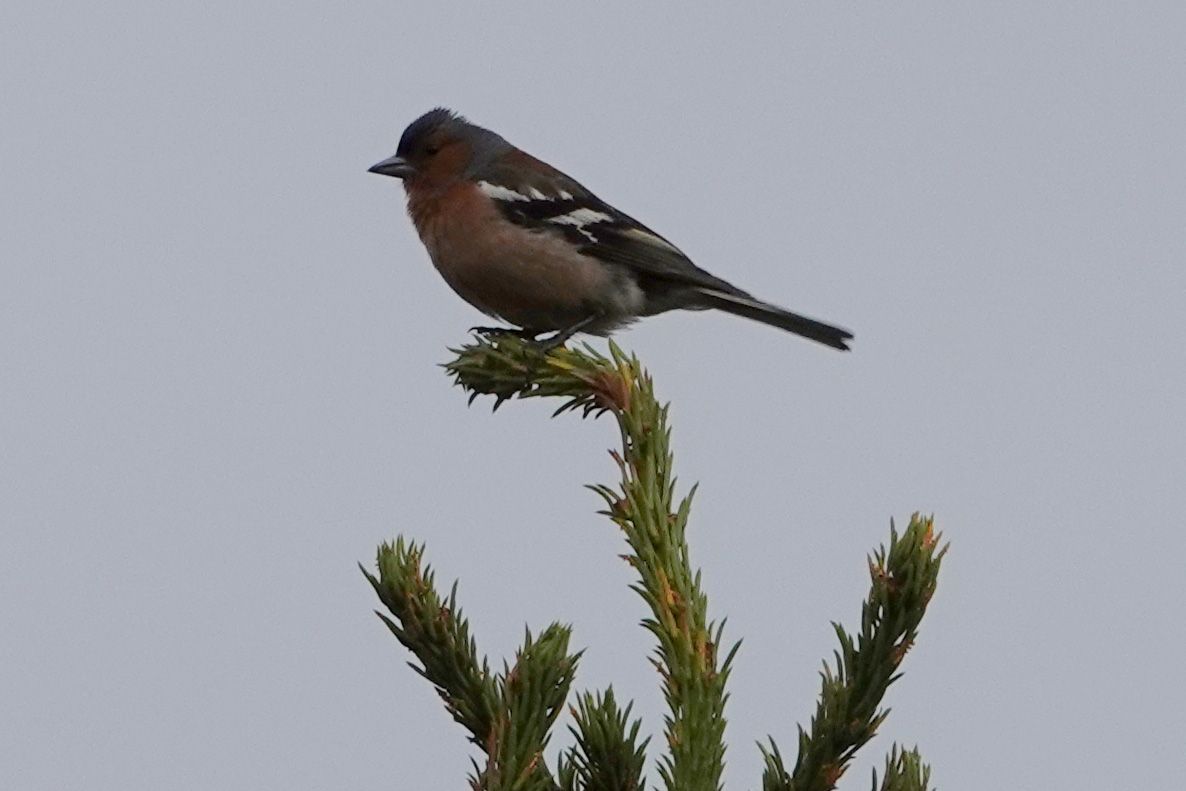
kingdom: Animalia
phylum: Chordata
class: Aves
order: Passeriformes
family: Fringillidae
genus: Fringilla
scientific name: Fringilla coelebs
